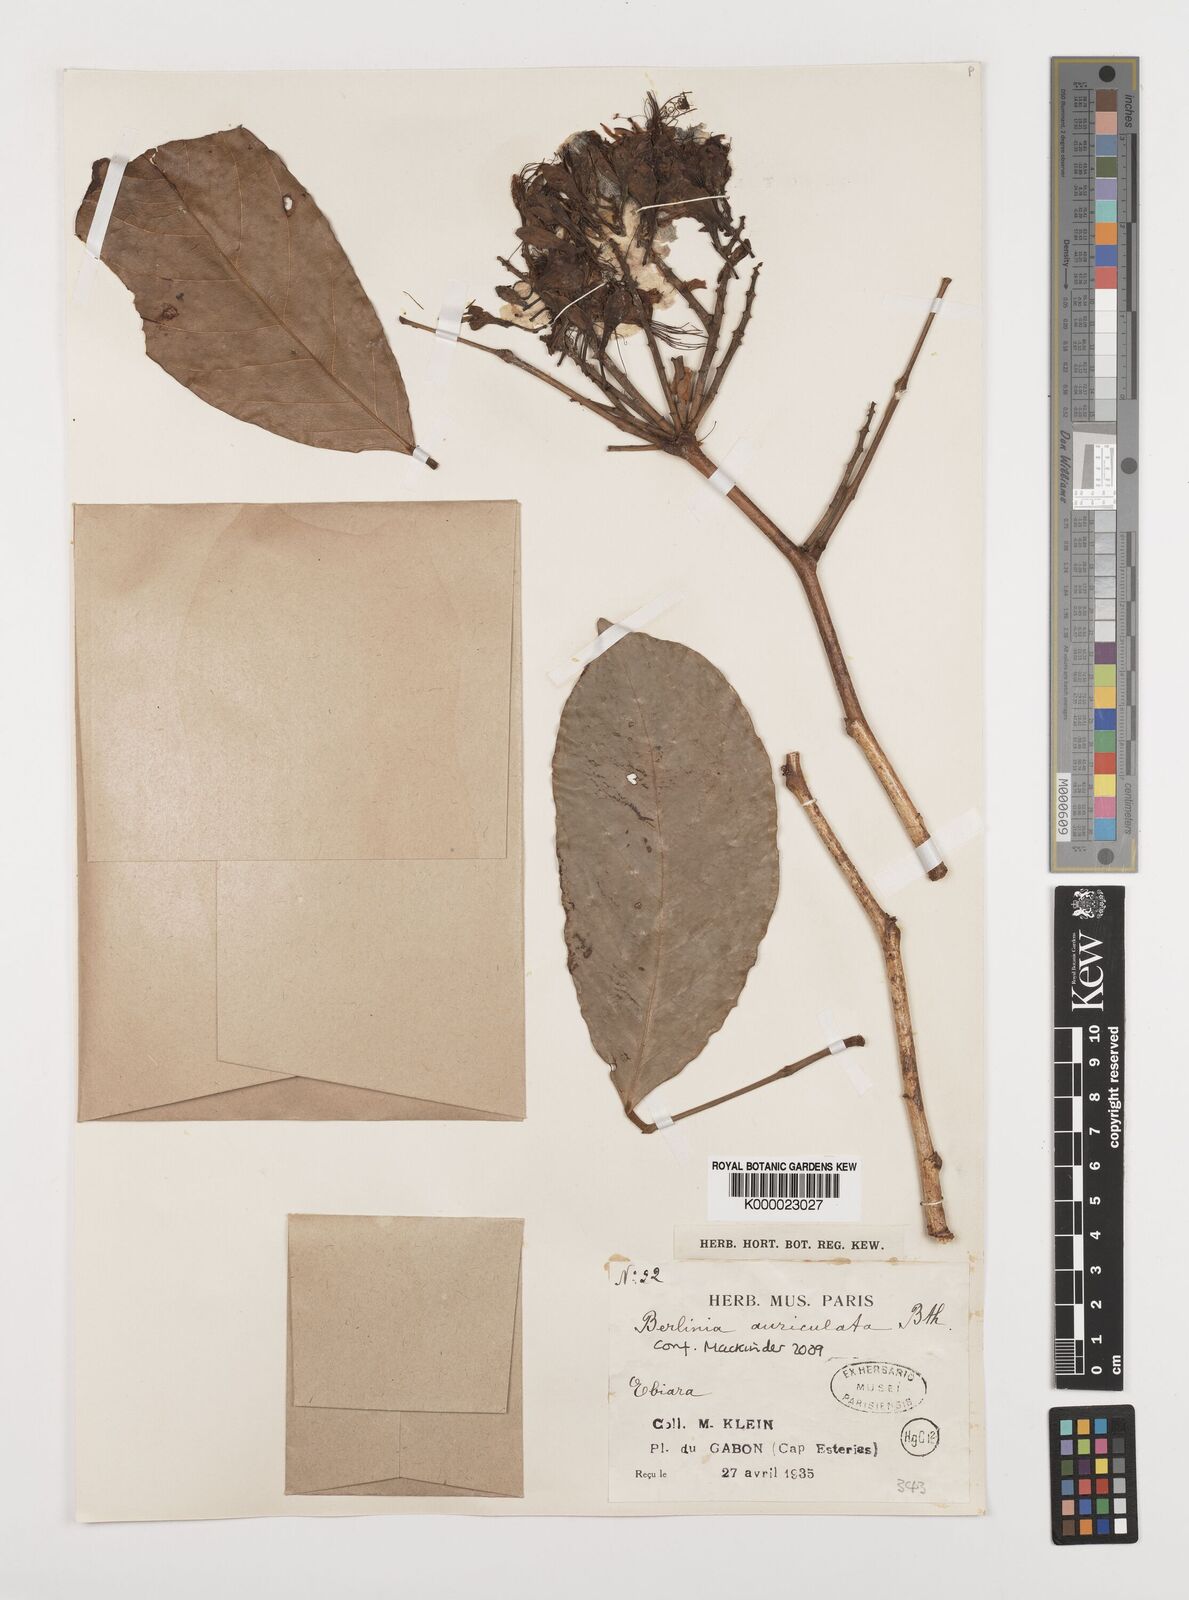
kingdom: Plantae
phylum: Tracheophyta
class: Magnoliopsida
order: Fabales
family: Fabaceae
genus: Berlinia
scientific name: Berlinia auriculata
